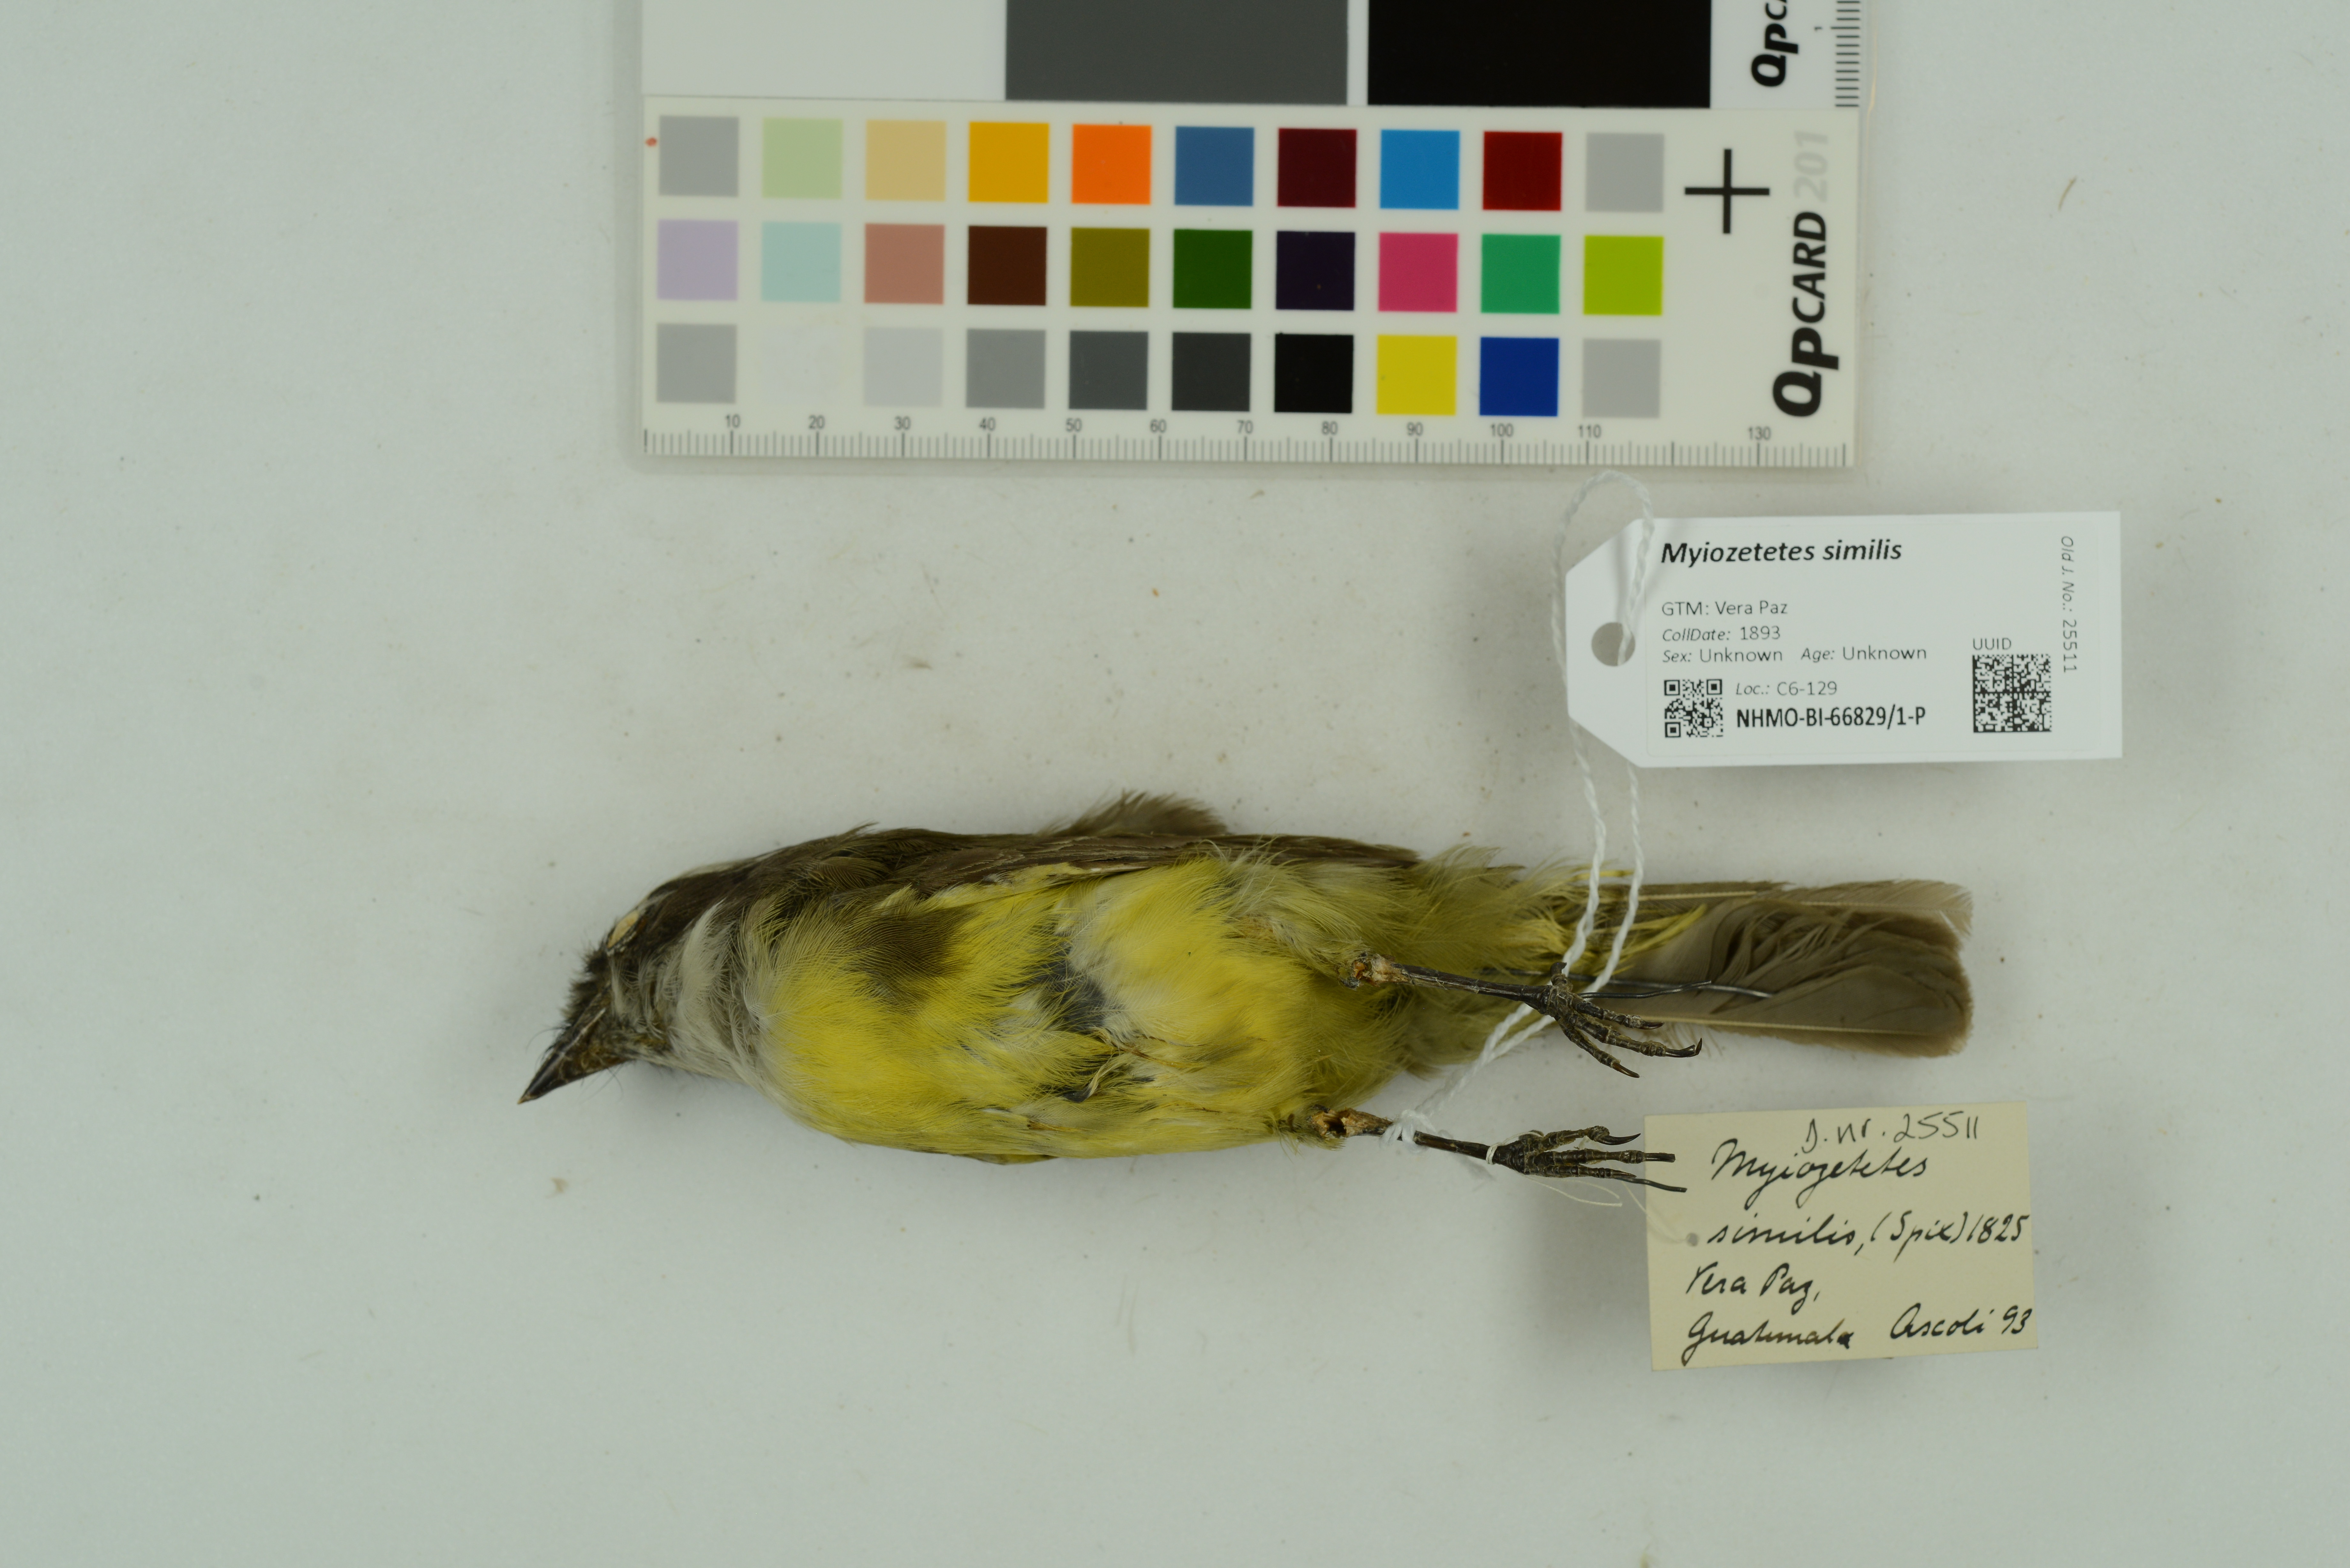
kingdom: Animalia
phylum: Chordata
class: Aves
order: Passeriformes
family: Tyrannidae
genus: Myiozetetes
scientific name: Myiozetetes similis
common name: Social flycatcher
